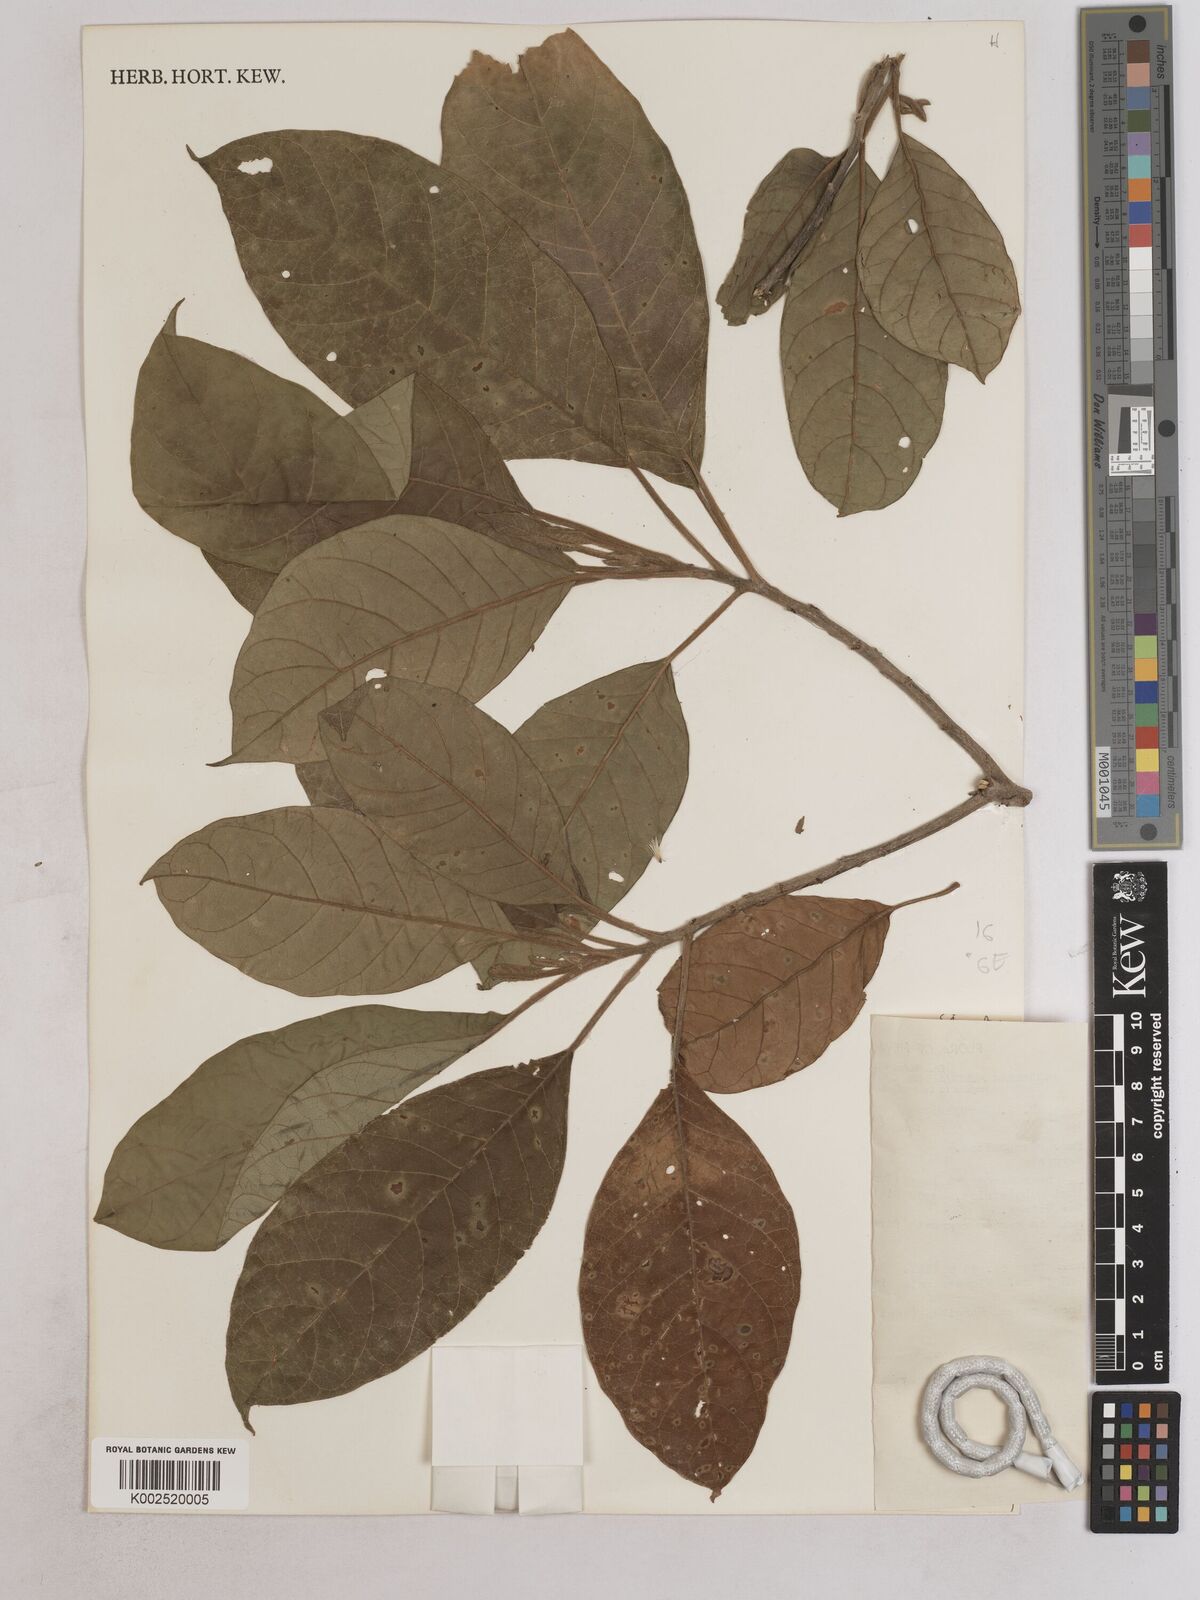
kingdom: Plantae
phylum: Tracheophyta
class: Magnoliopsida
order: Asterales
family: Asteraceae
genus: Strobocalyx
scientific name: Strobocalyx arborea
